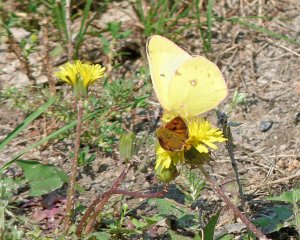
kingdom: Animalia
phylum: Arthropoda
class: Insecta
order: Lepidoptera
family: Pieridae
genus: Colias
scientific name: Colias philodice
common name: Clouded Sulphur
